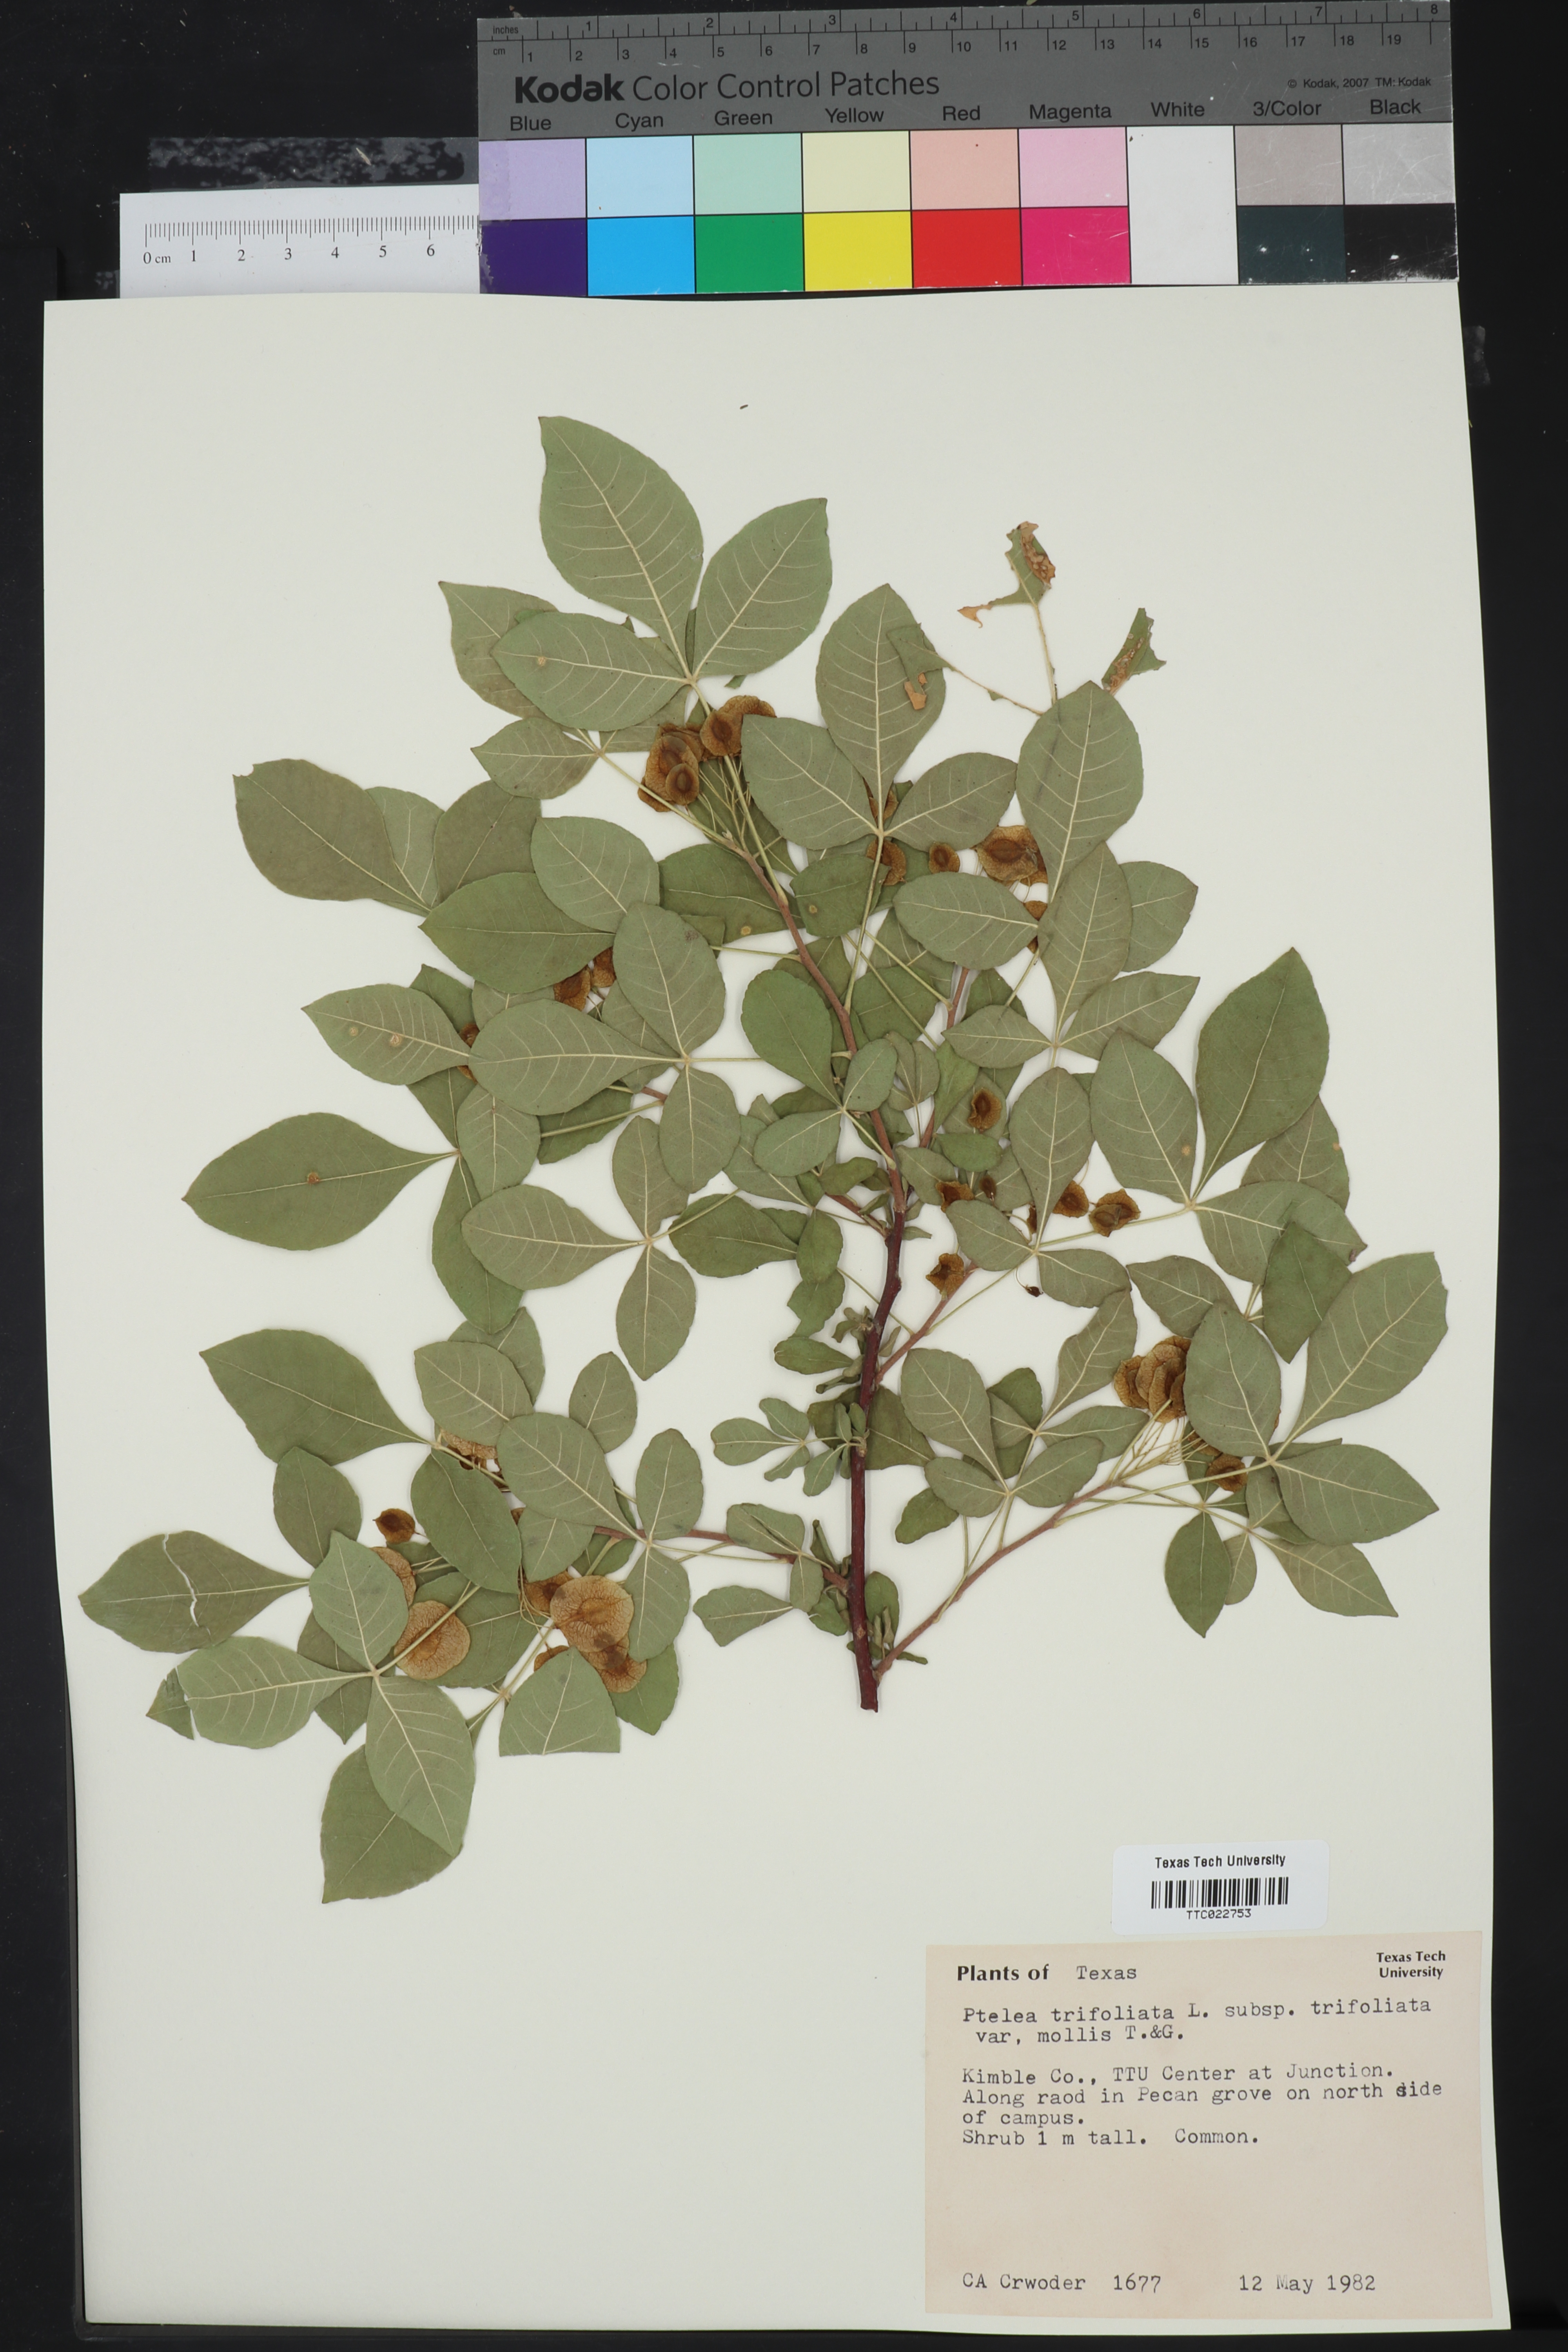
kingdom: Plantae
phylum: Tracheophyta
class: Magnoliopsida
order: Sapindales
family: Rutaceae
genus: Ptelea
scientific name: Ptelea trifoliata
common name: Common hop-tree
